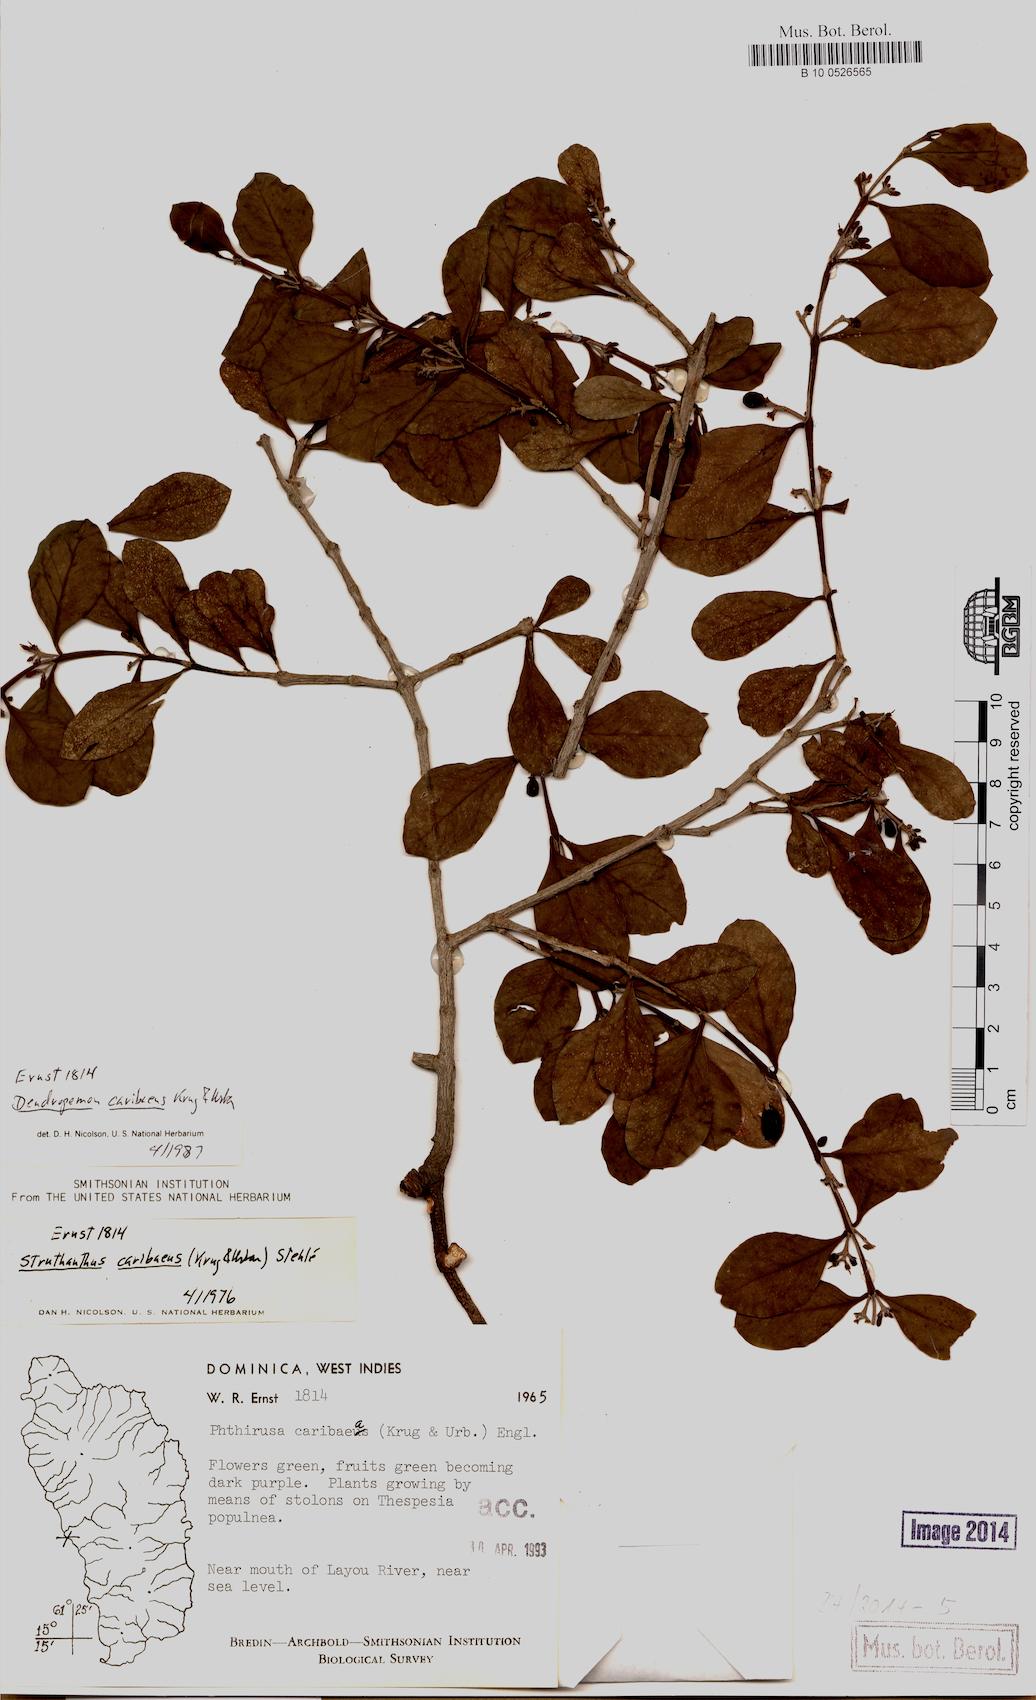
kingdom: Plantae
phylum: Tracheophyta
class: Magnoliopsida
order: Santalales
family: Loranthaceae
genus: Dendropemon
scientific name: Dendropemon caribaeus
